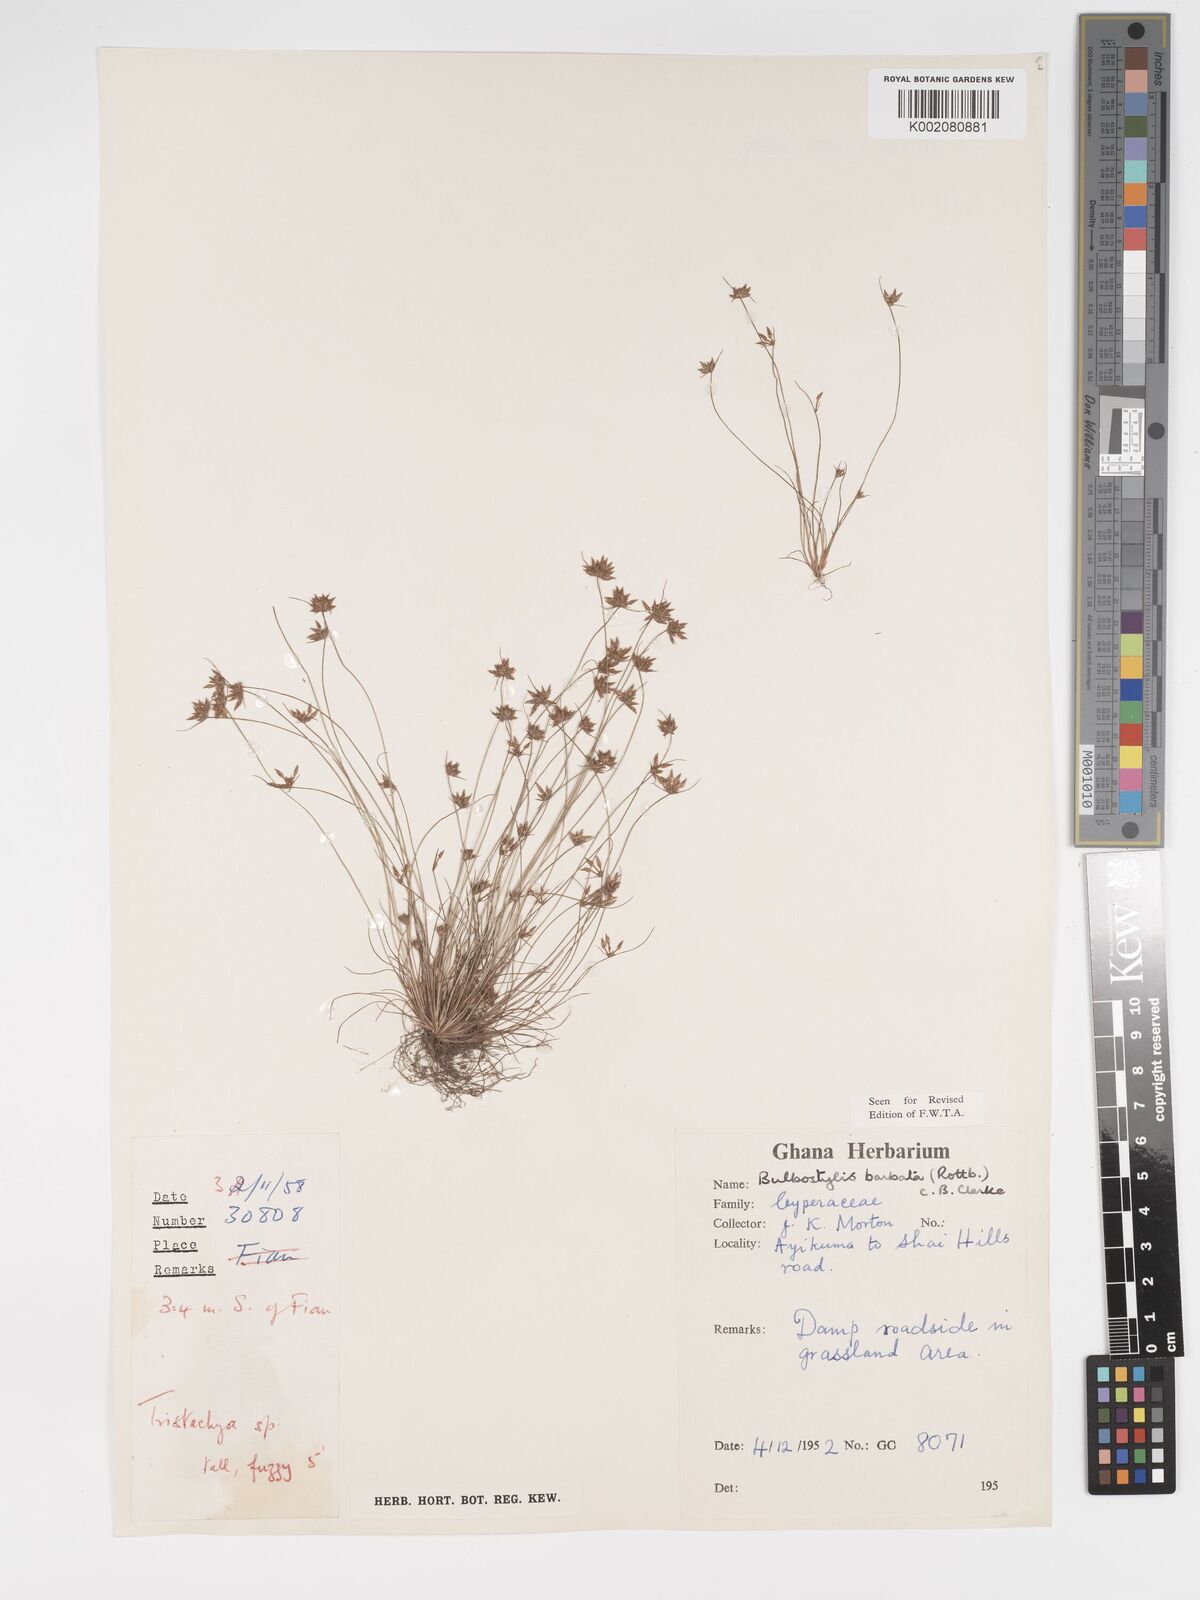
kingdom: Plantae
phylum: Tracheophyta
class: Liliopsida
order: Poales
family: Cyperaceae
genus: Bulbostylis
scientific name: Bulbostylis barbata
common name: Watergrass
